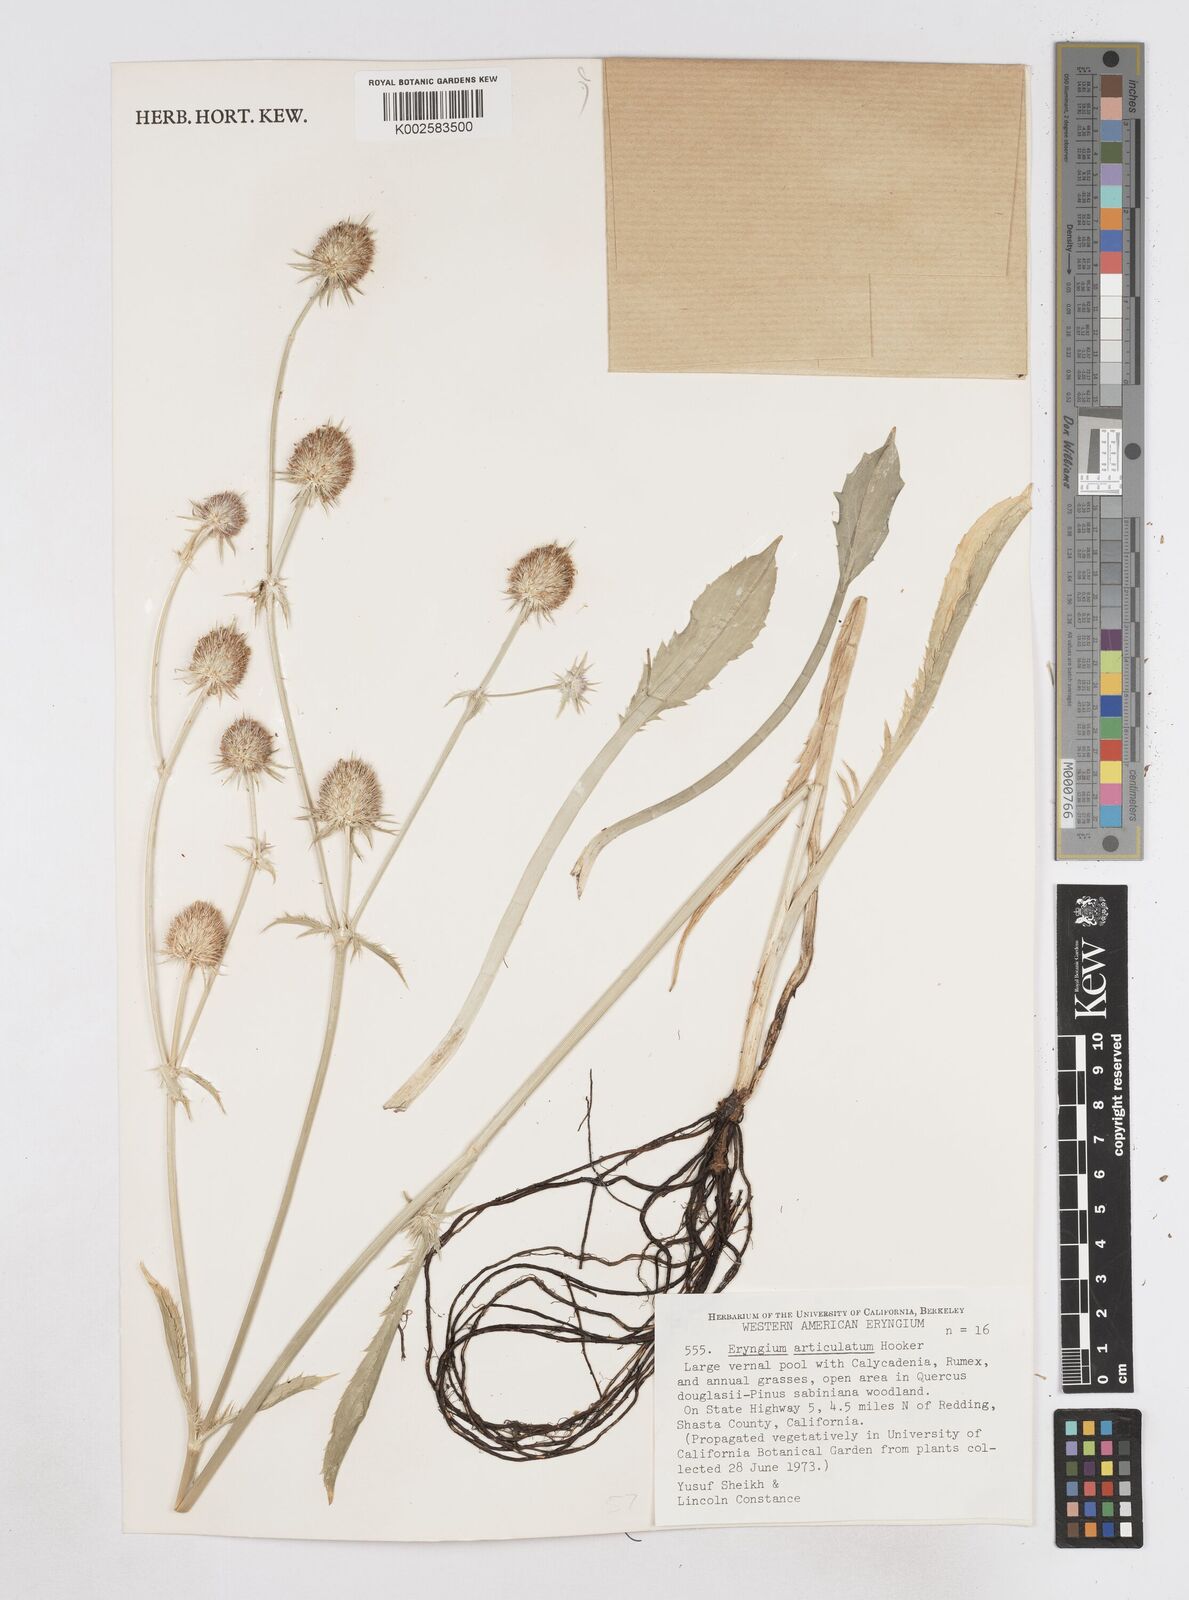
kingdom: Plantae
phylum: Tracheophyta
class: Magnoliopsida
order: Apiales
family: Apiaceae
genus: Eryngium
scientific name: Eryngium articulatum
